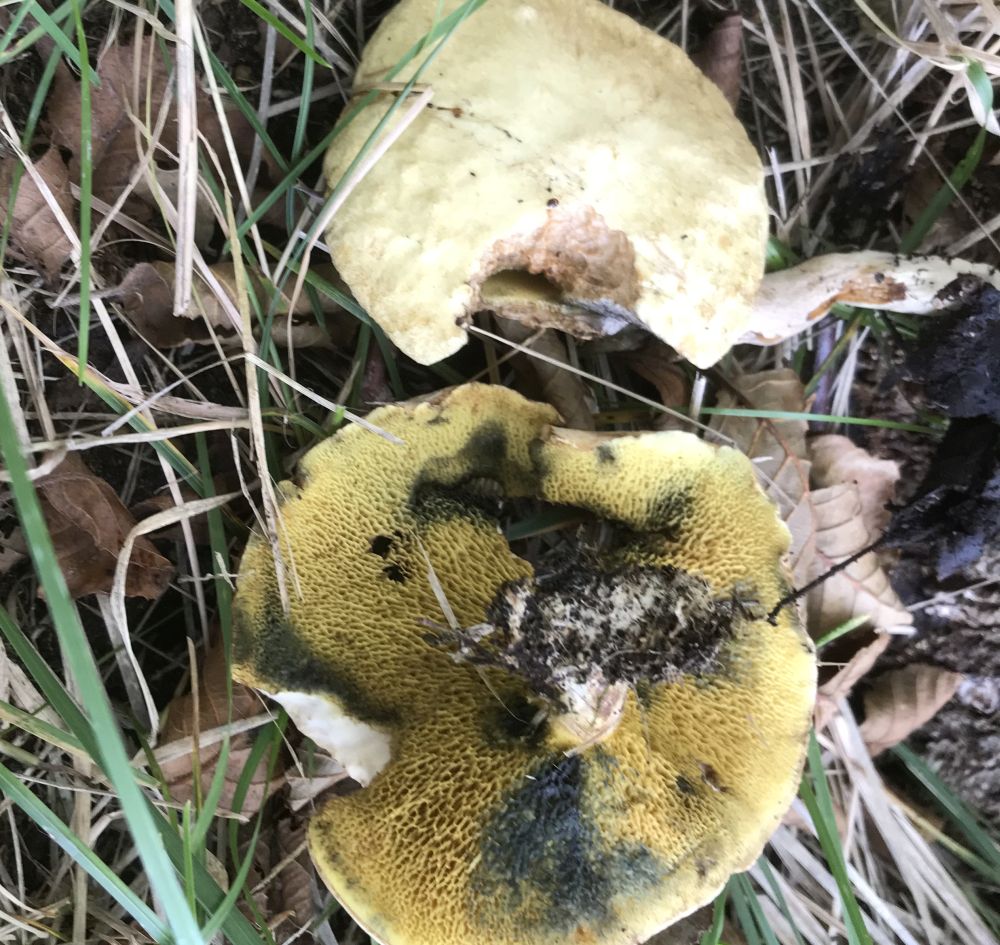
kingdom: Fungi
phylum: Basidiomycota
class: Agaricomycetes
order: Boletales
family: Paxillaceae
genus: Gyrodon
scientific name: Gyrodon lividus
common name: ellerørhat
